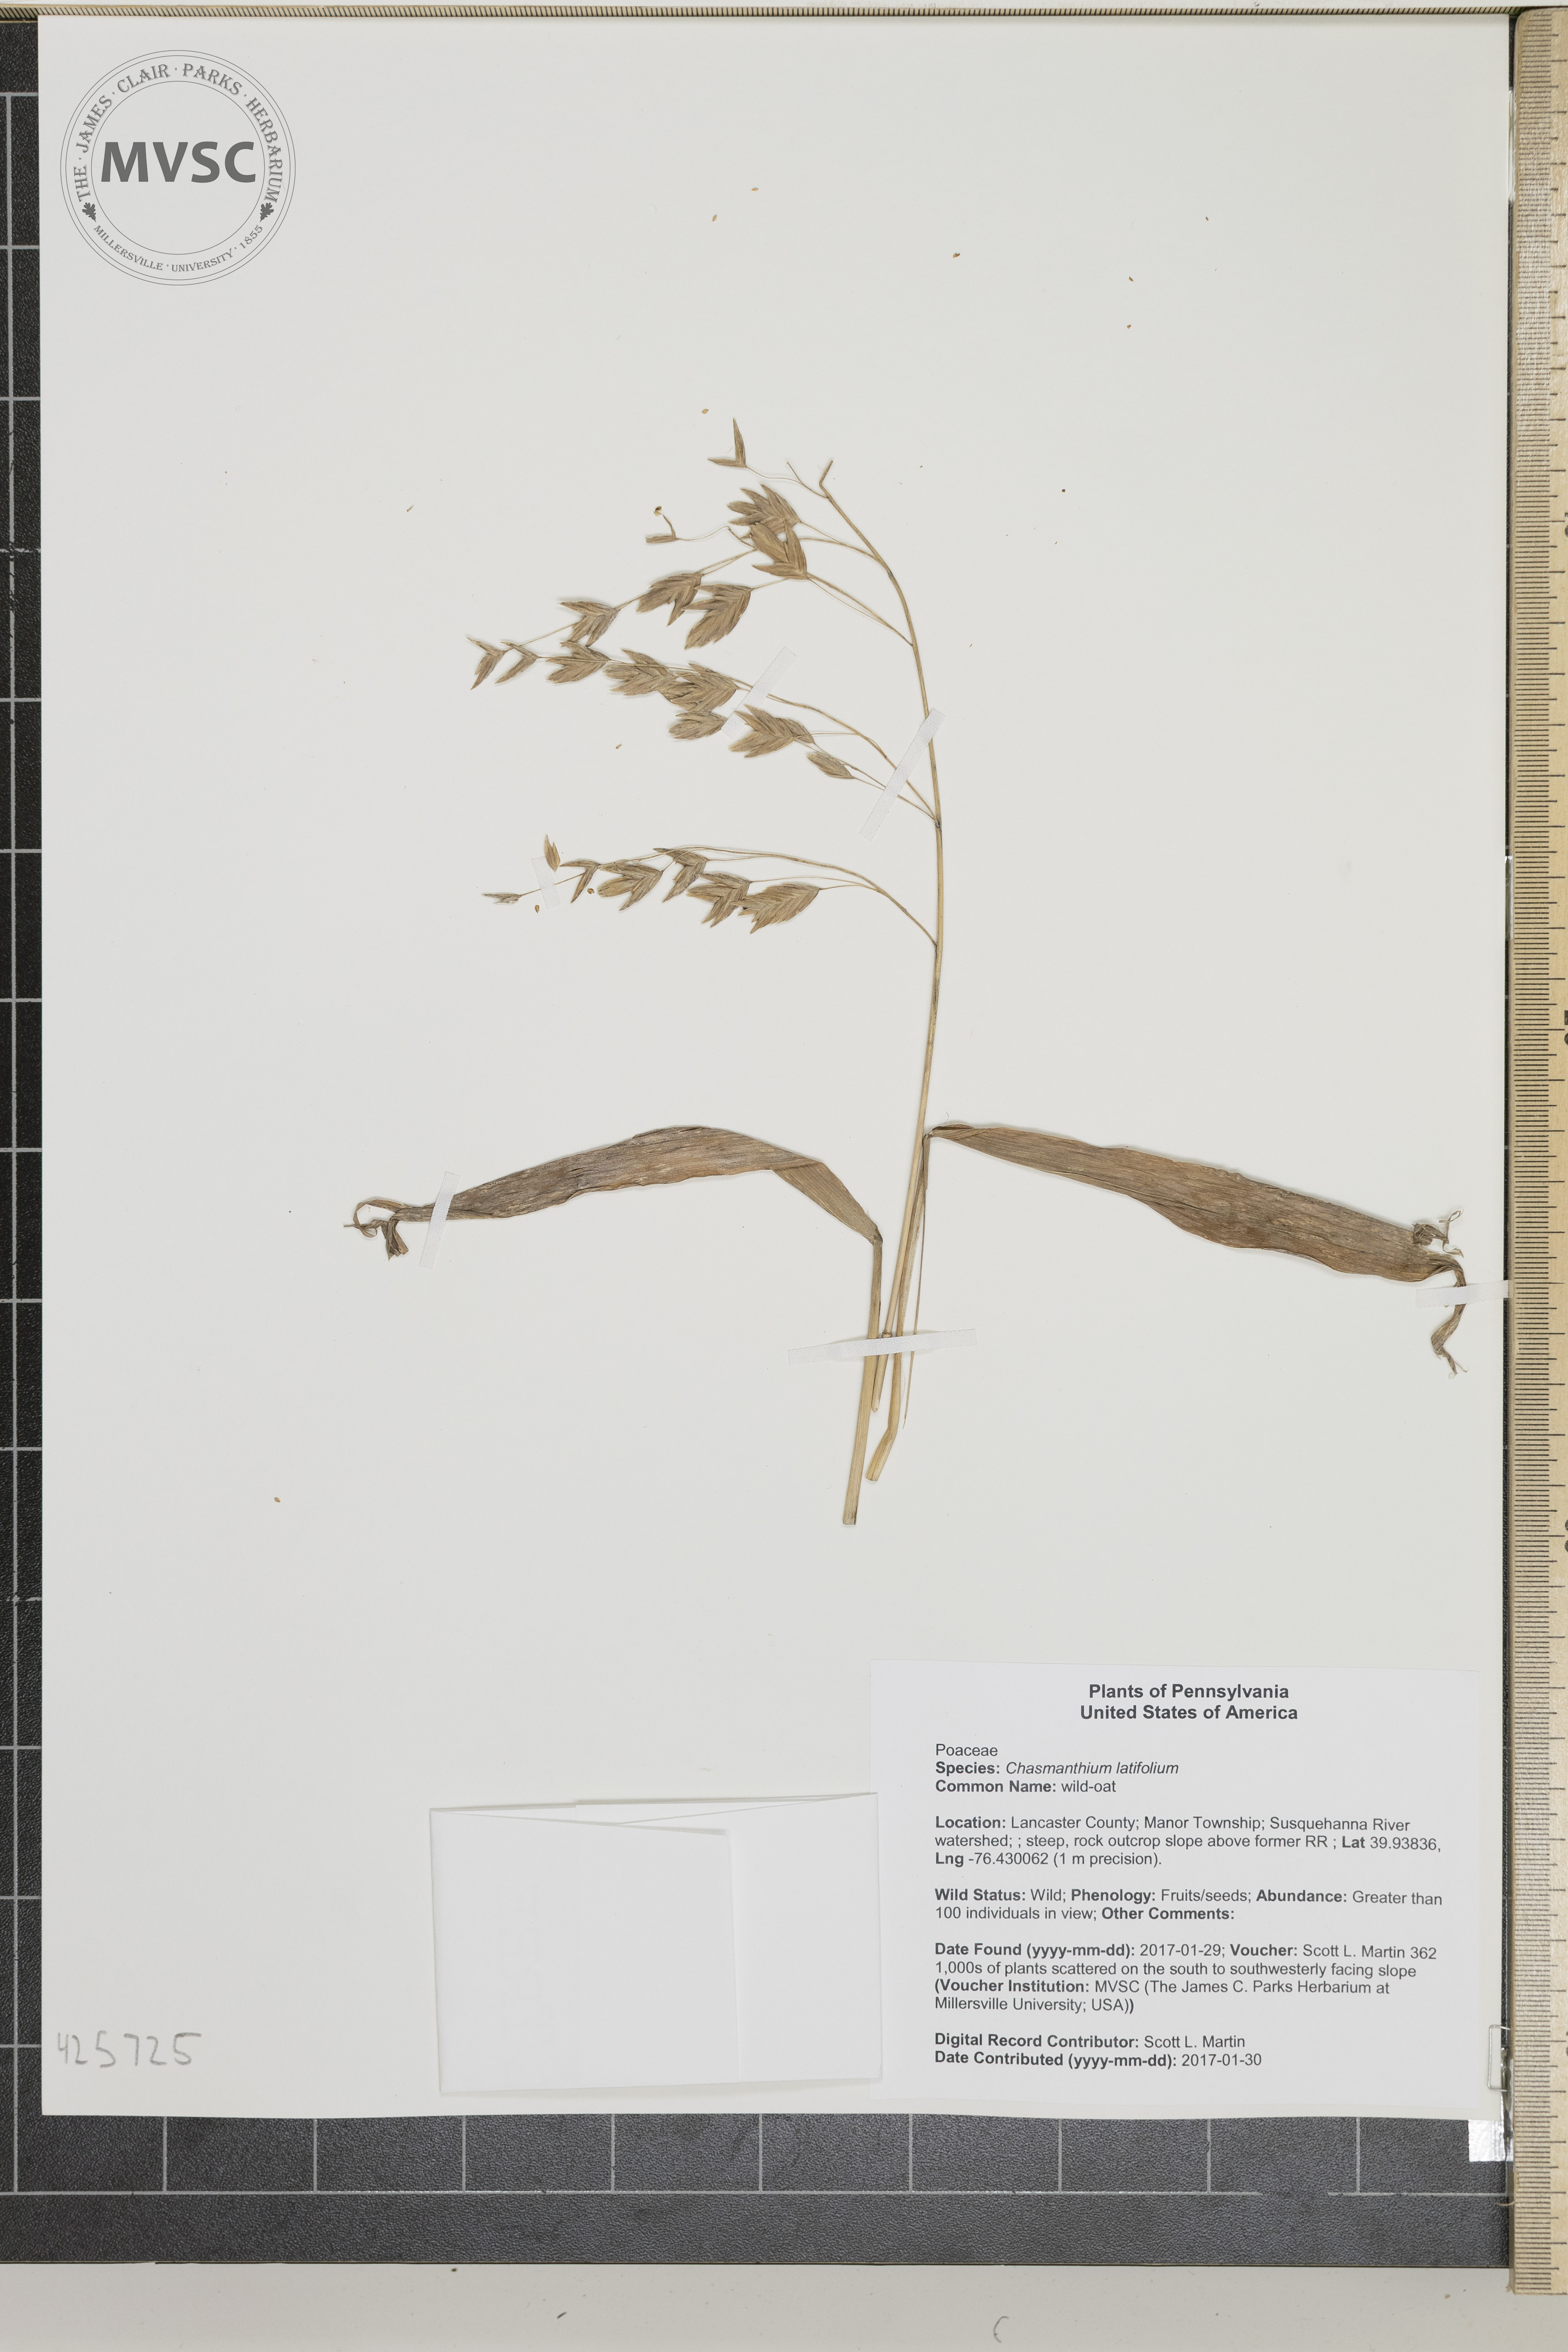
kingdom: Plantae
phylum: Tracheophyta
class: Liliopsida
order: Poales
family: Poaceae
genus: Chasmanthium
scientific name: Chasmanthium latifolium
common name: wild-oat
